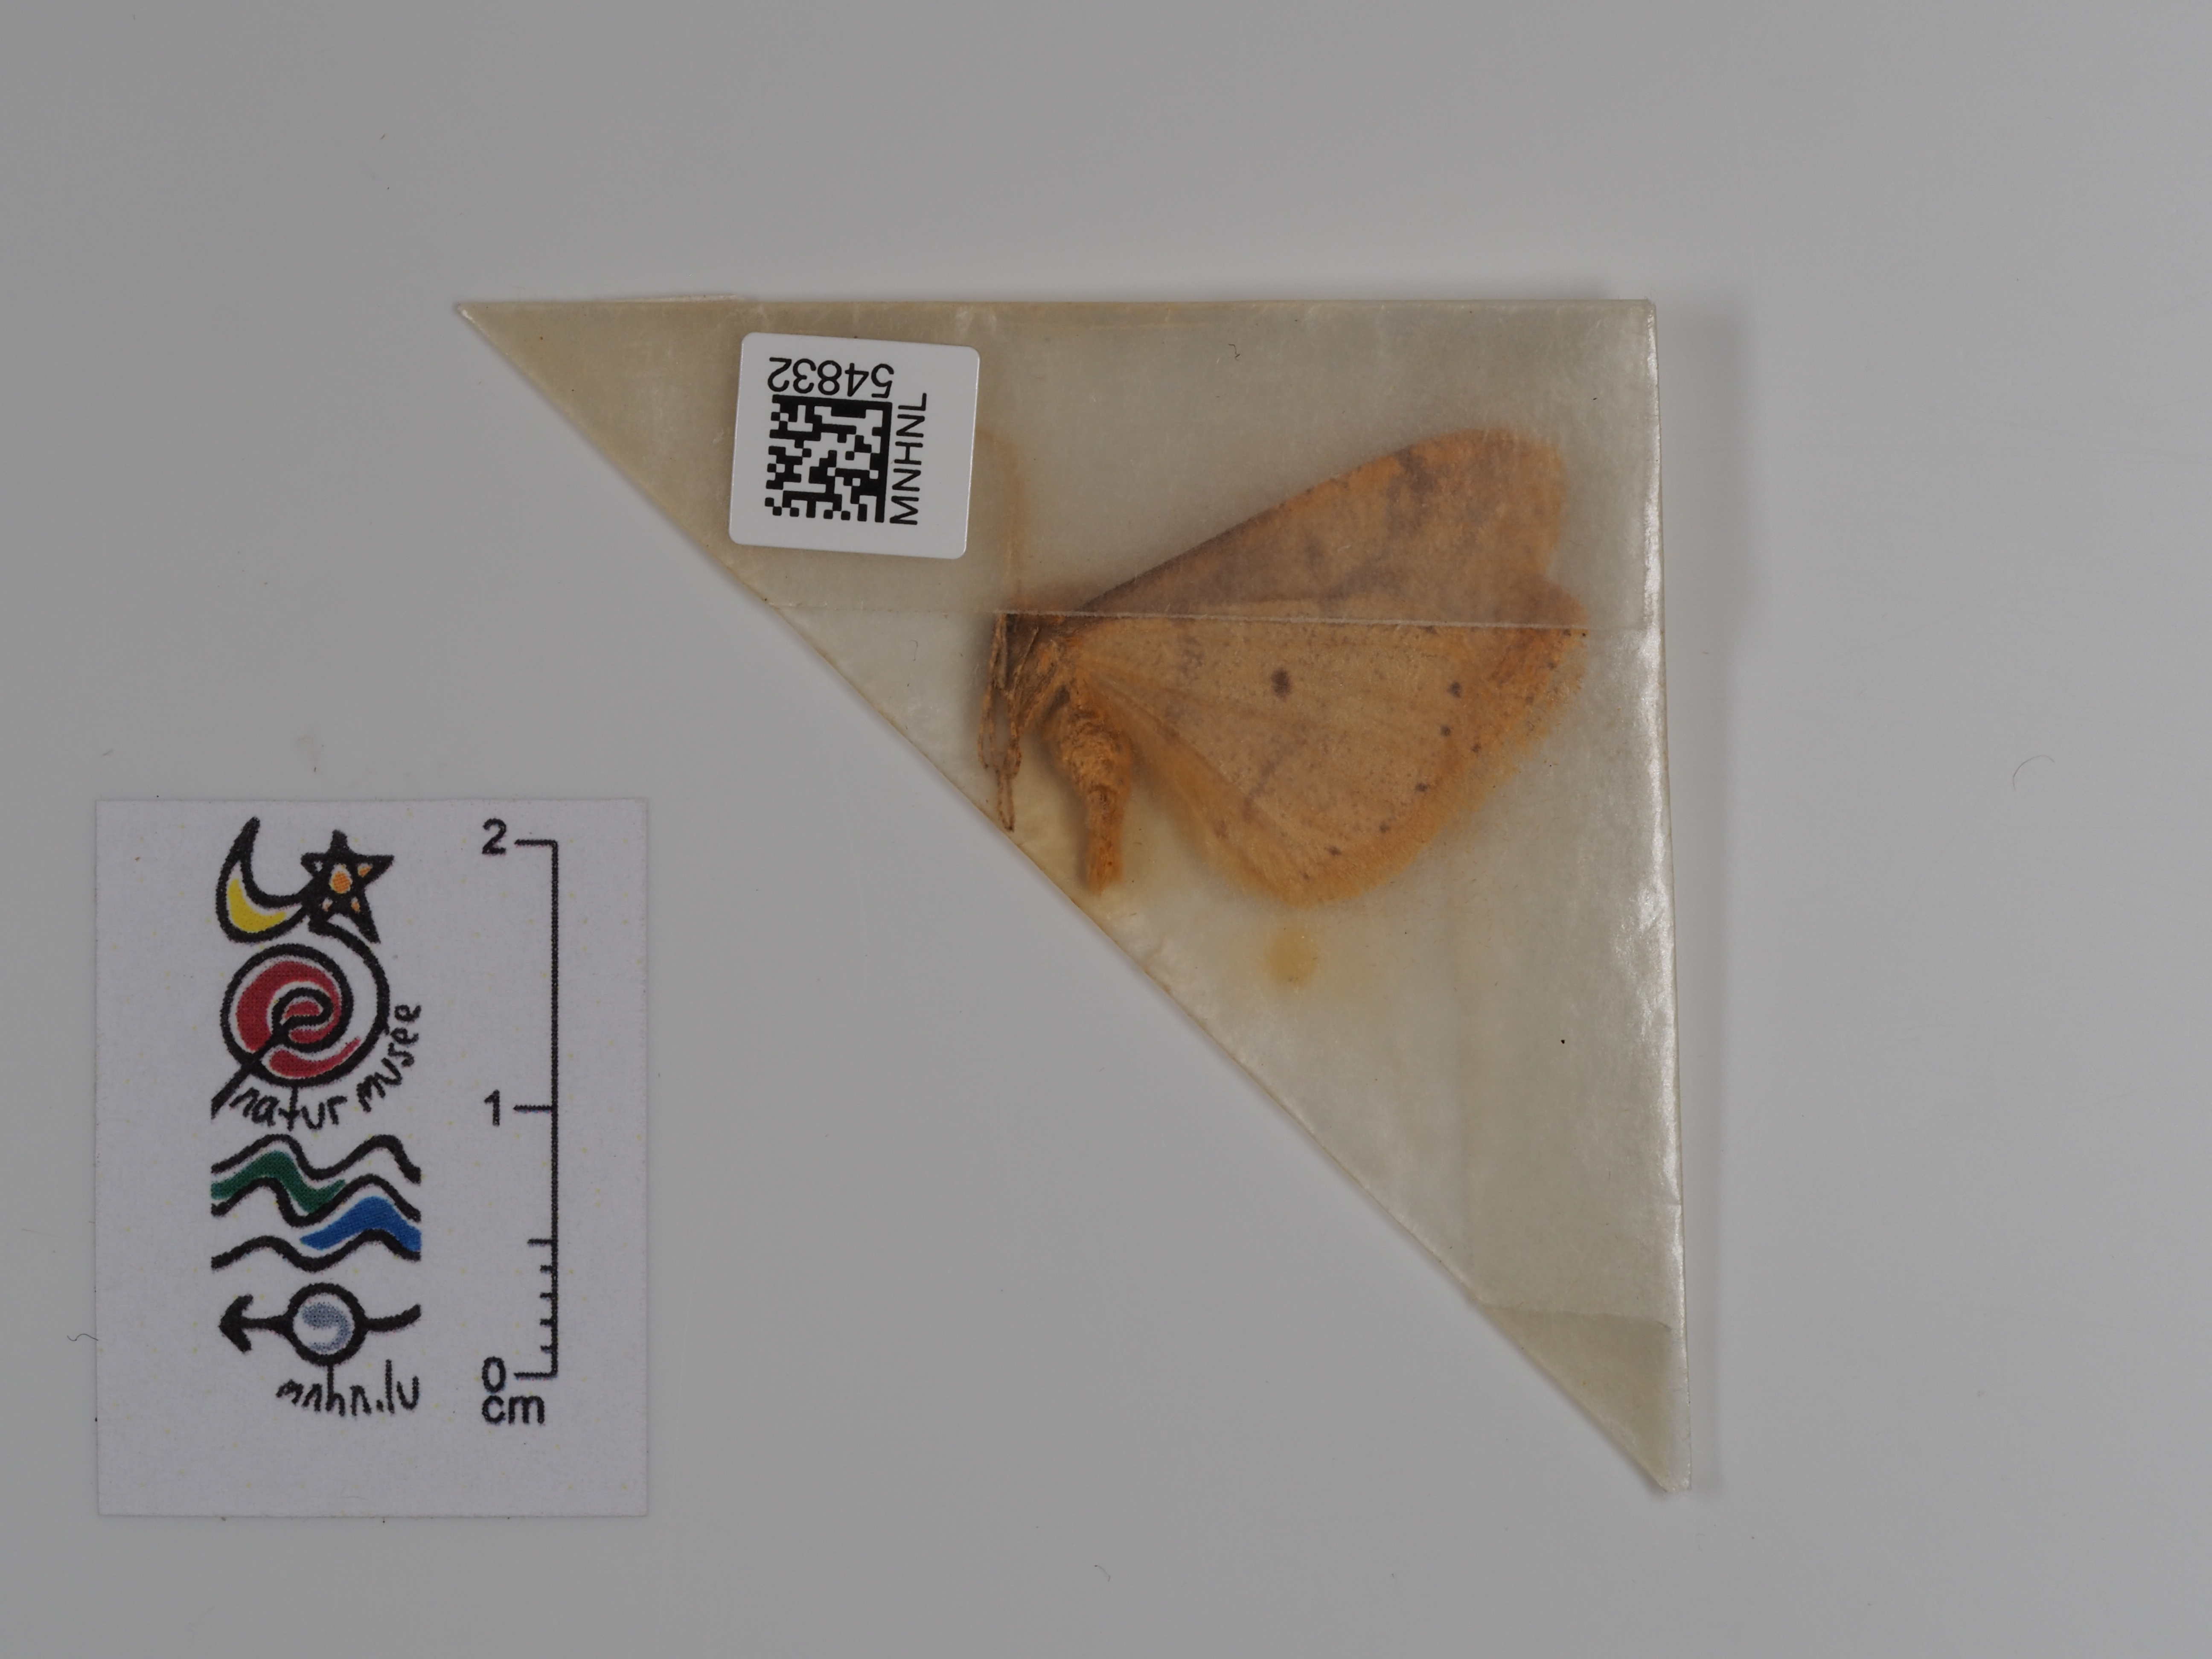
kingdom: Animalia
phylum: Arthropoda
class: Insecta
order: Lepidoptera
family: Geometridae
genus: Agriopis
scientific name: Agriopis aurantiaria
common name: Scarce umber
